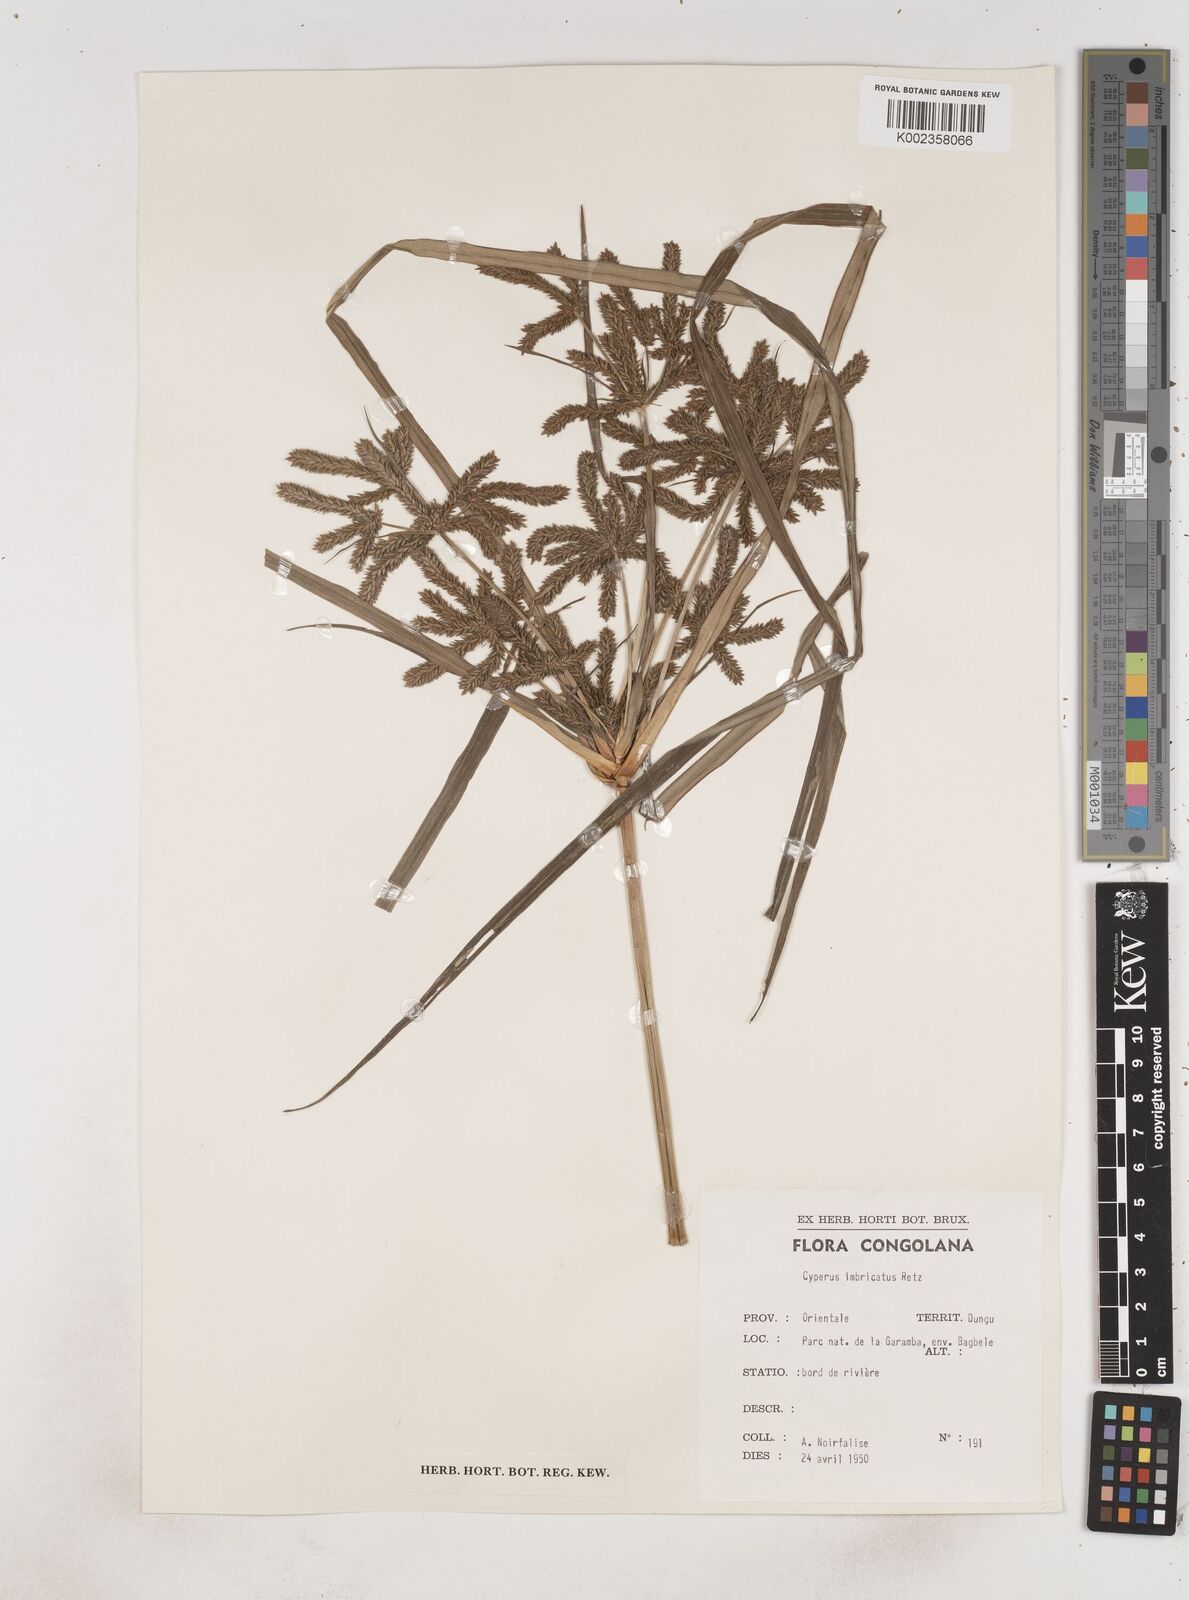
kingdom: Plantae
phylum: Tracheophyta
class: Liliopsida
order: Poales
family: Cyperaceae
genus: Cyperus
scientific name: Cyperus imbricatus
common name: Shingle flatsedge
